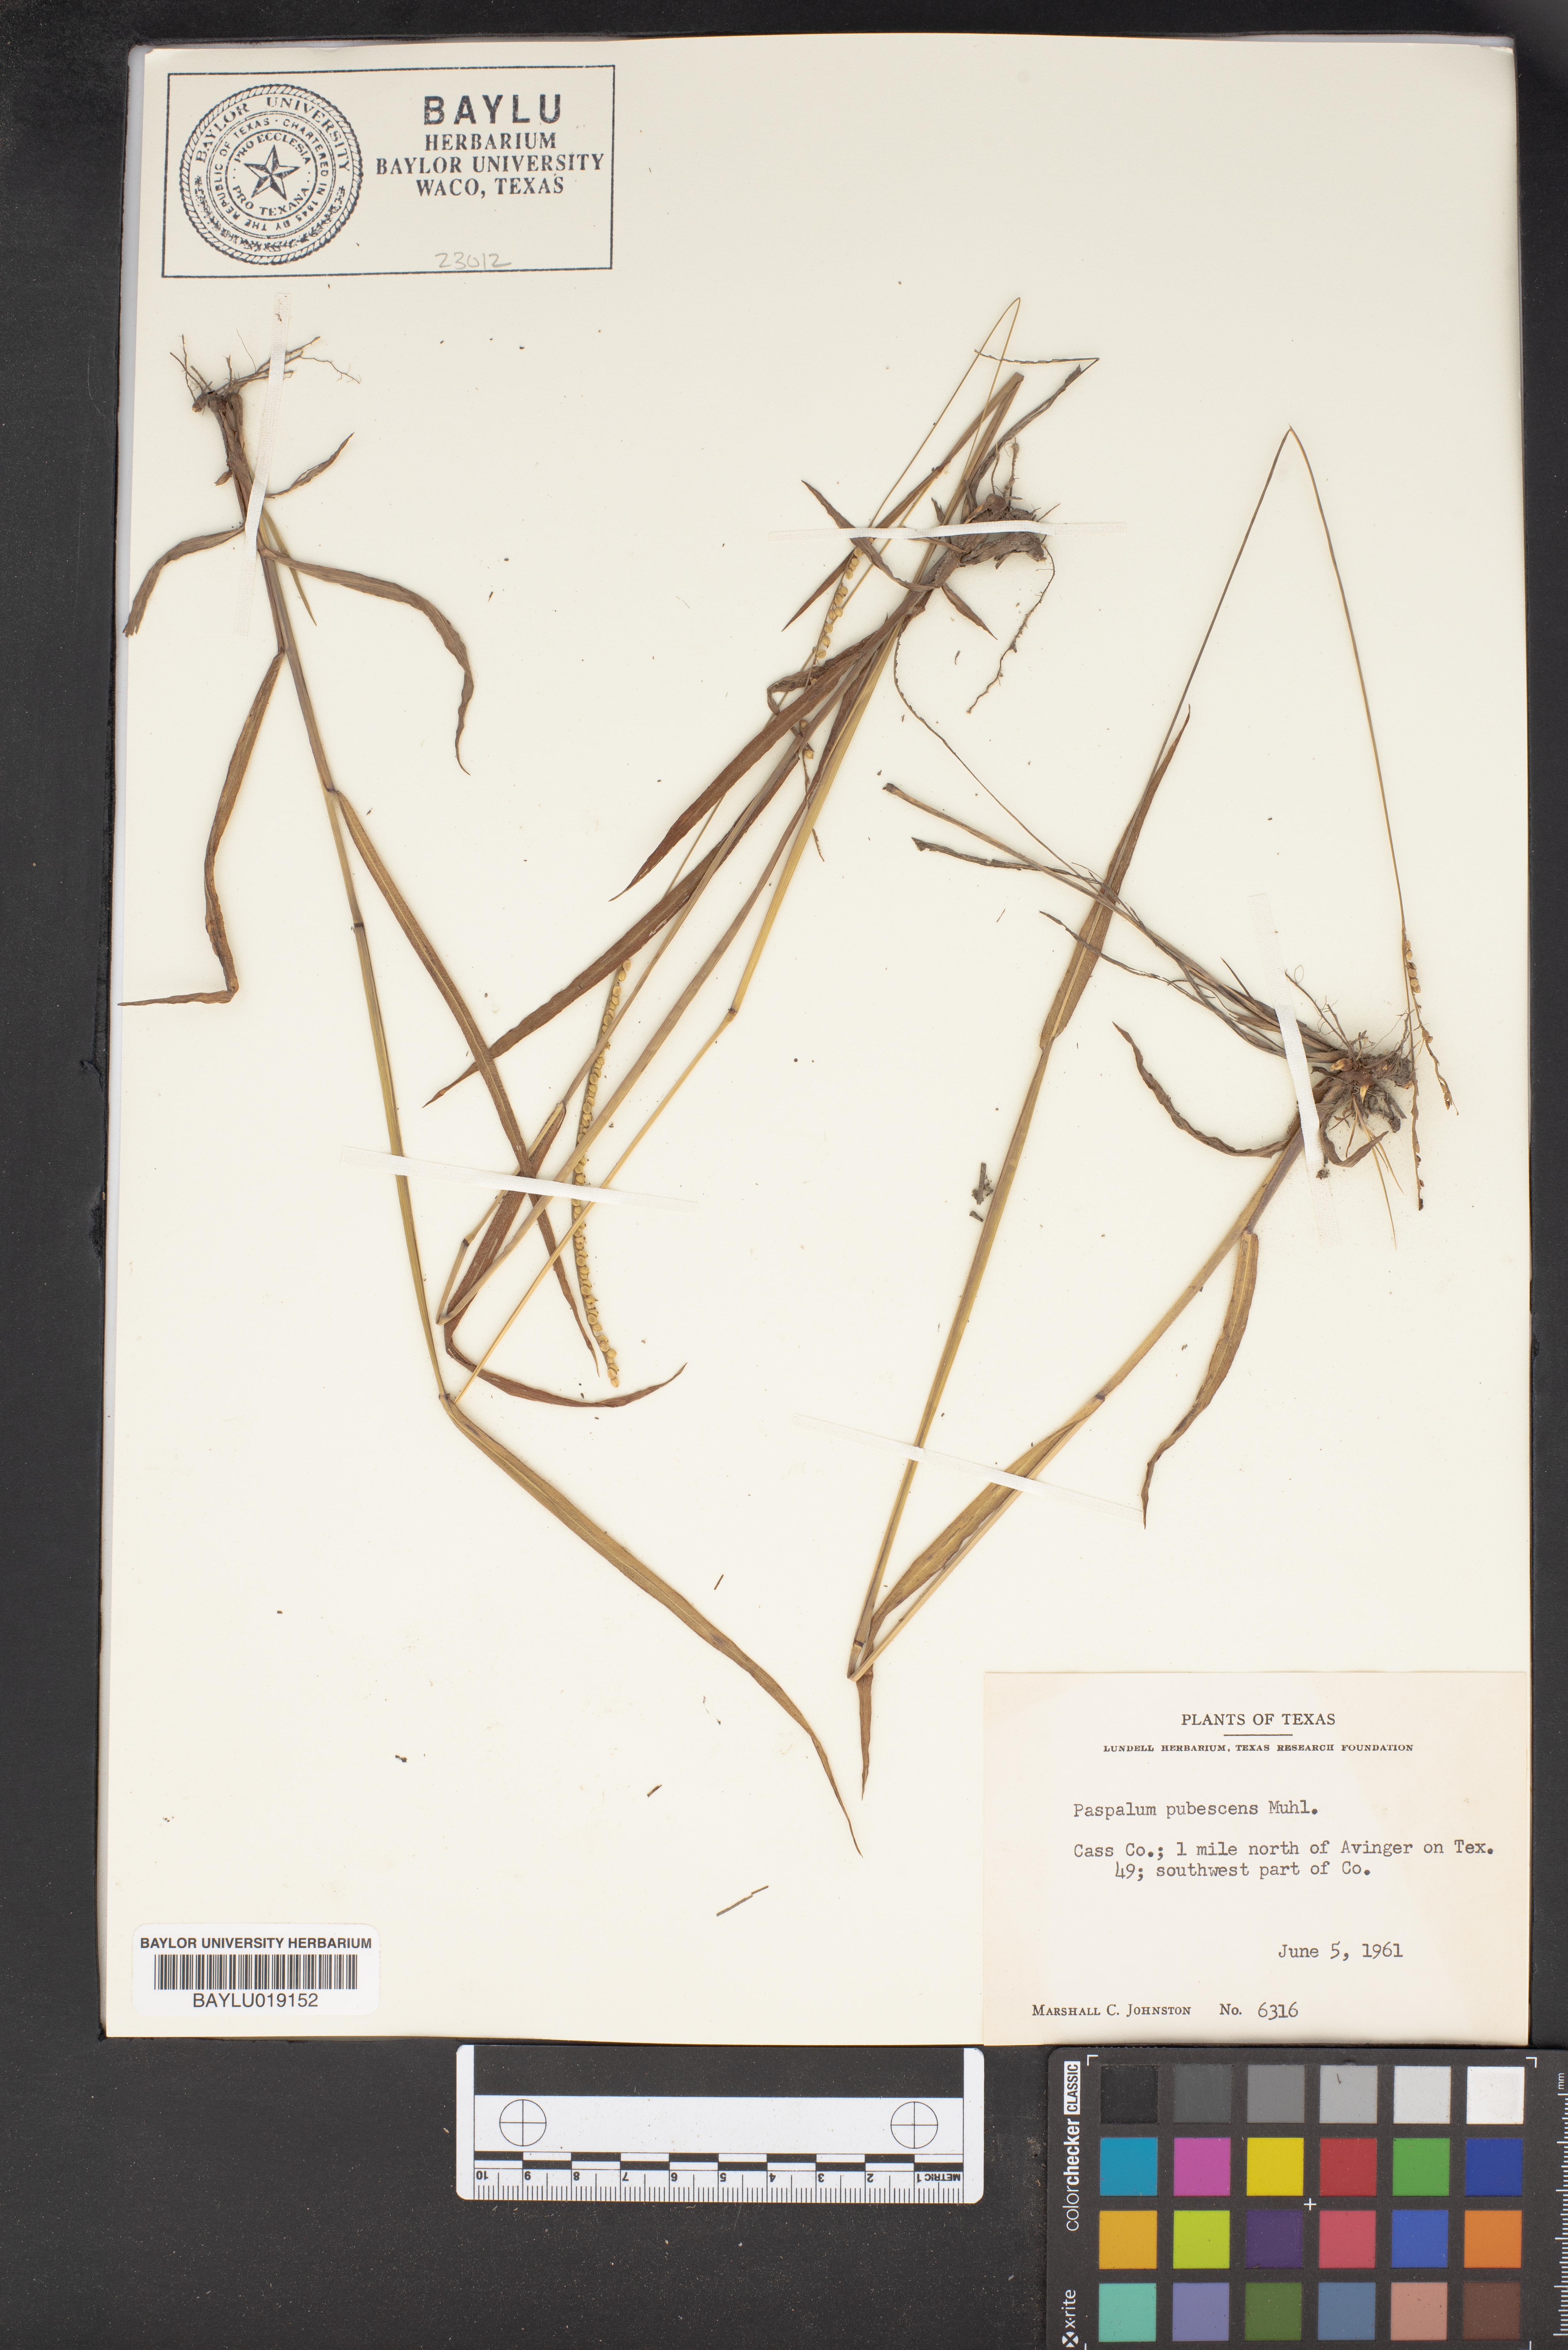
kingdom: Plantae
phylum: Tracheophyta
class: Liliopsida
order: Poales
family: Poaceae
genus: Paspalum
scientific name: Paspalum setaceum
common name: Slender paspalum
